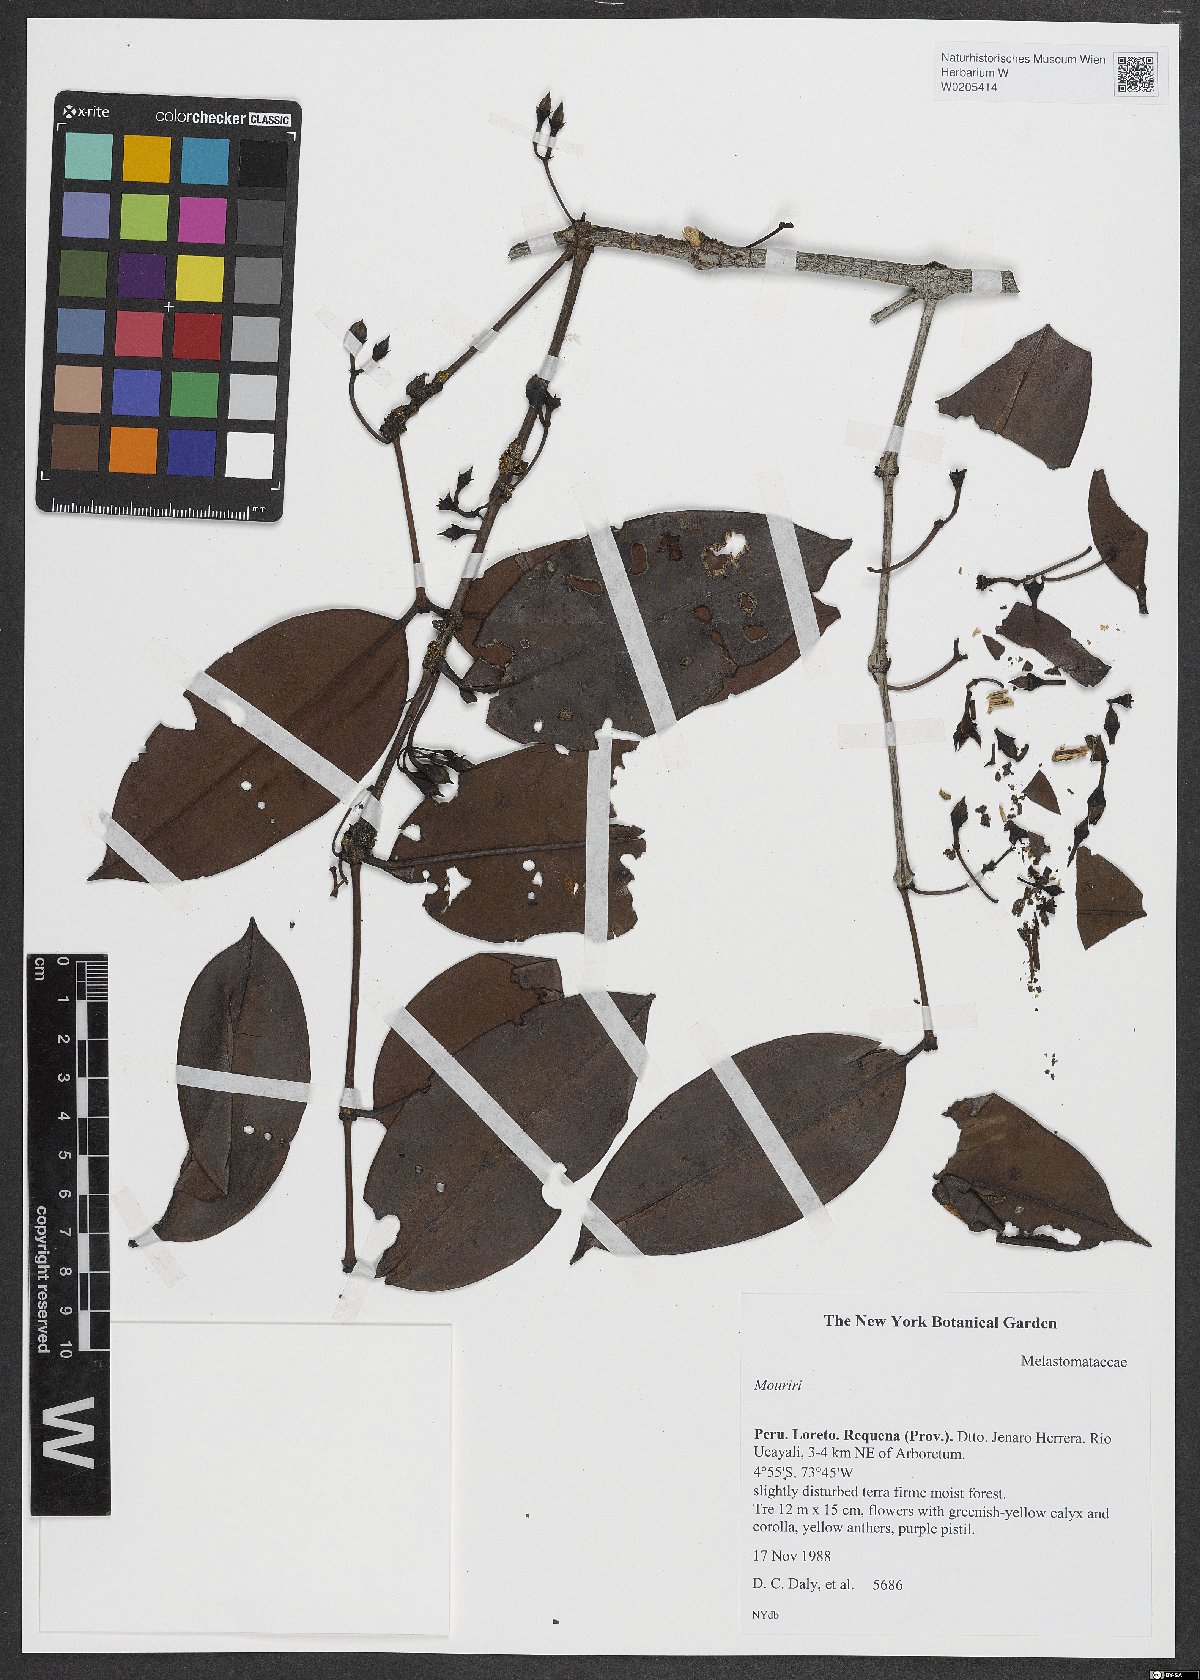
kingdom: Plantae
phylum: Tracheophyta
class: Magnoliopsida
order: Myrtales
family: Melastomataceae
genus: Mouriri
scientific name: Mouriri
